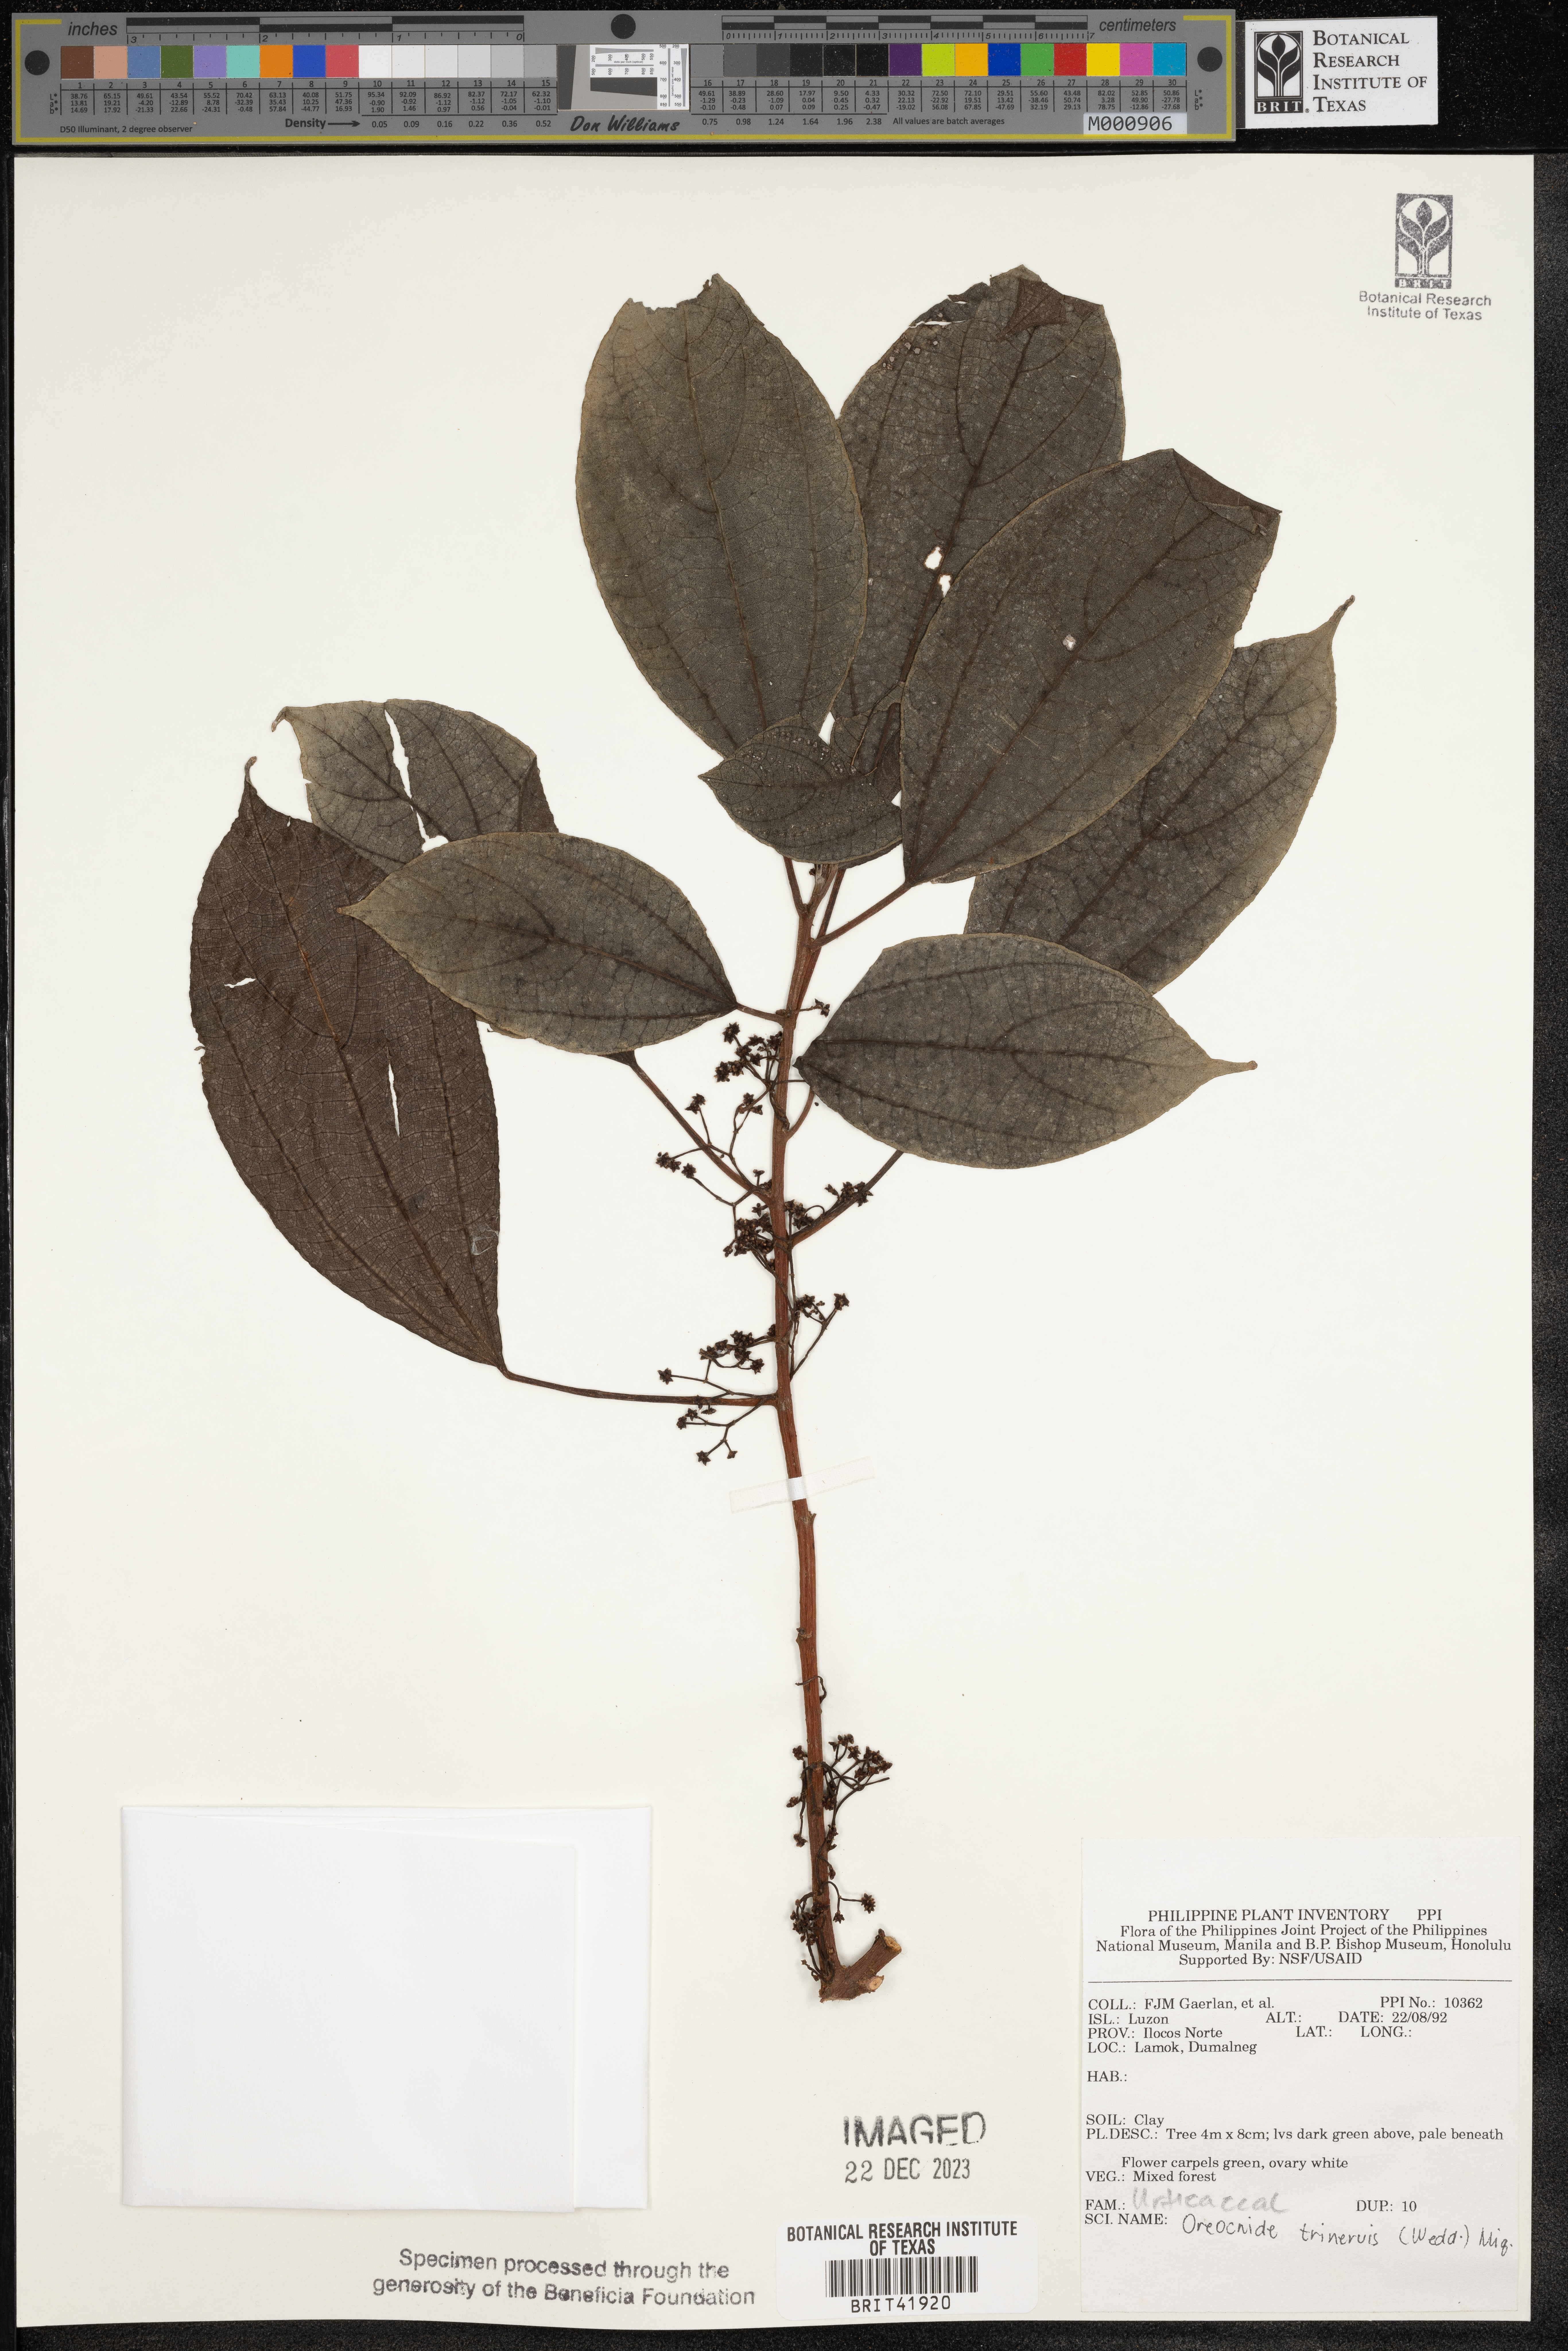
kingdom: Plantae
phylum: Tracheophyta
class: Magnoliopsida
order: Rosales
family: Urticaceae
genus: Oreocnide
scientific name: Oreocnide trinervis
